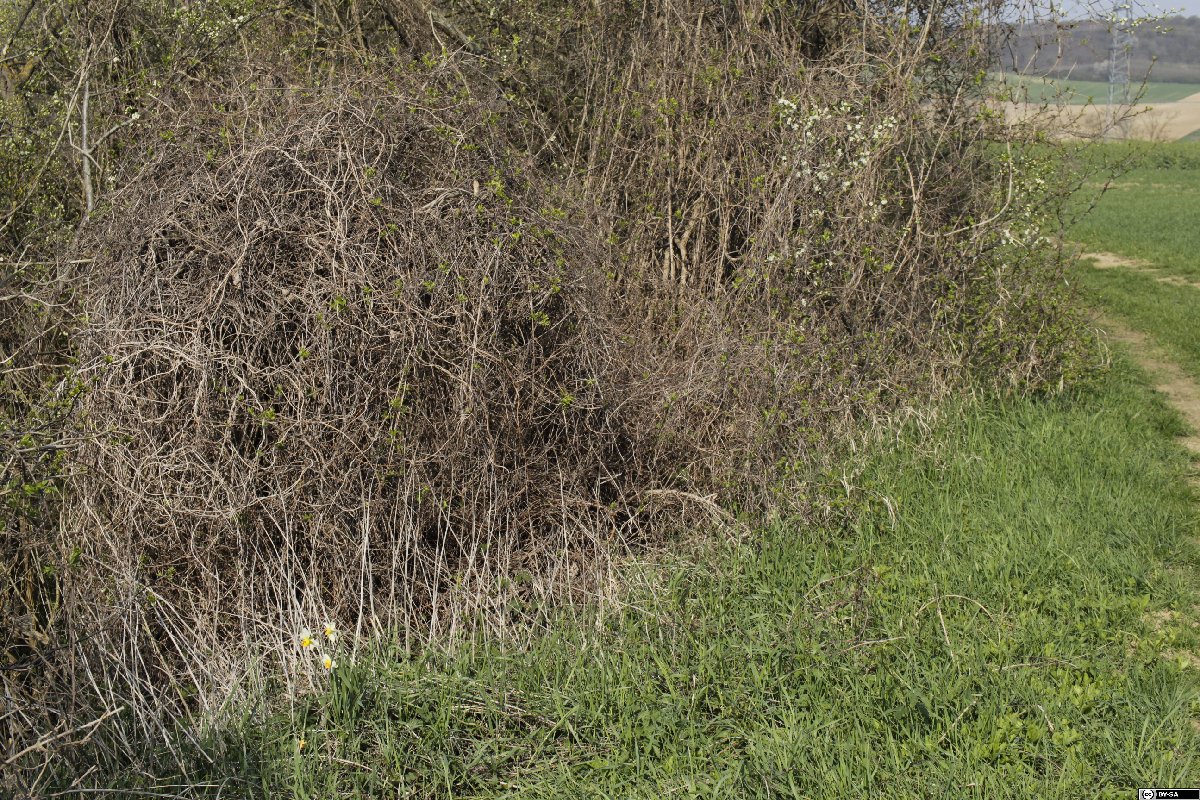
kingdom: Plantae
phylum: Tracheophyta
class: Liliopsida
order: Asparagales
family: Amaryllidaceae
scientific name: Amaryllidaceae
